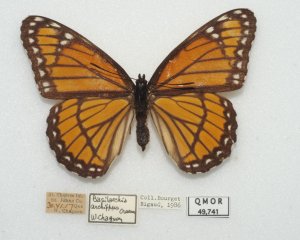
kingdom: Animalia
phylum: Arthropoda
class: Insecta
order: Lepidoptera
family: Nymphalidae
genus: Limenitis
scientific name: Limenitis archippus
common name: Viceroy
